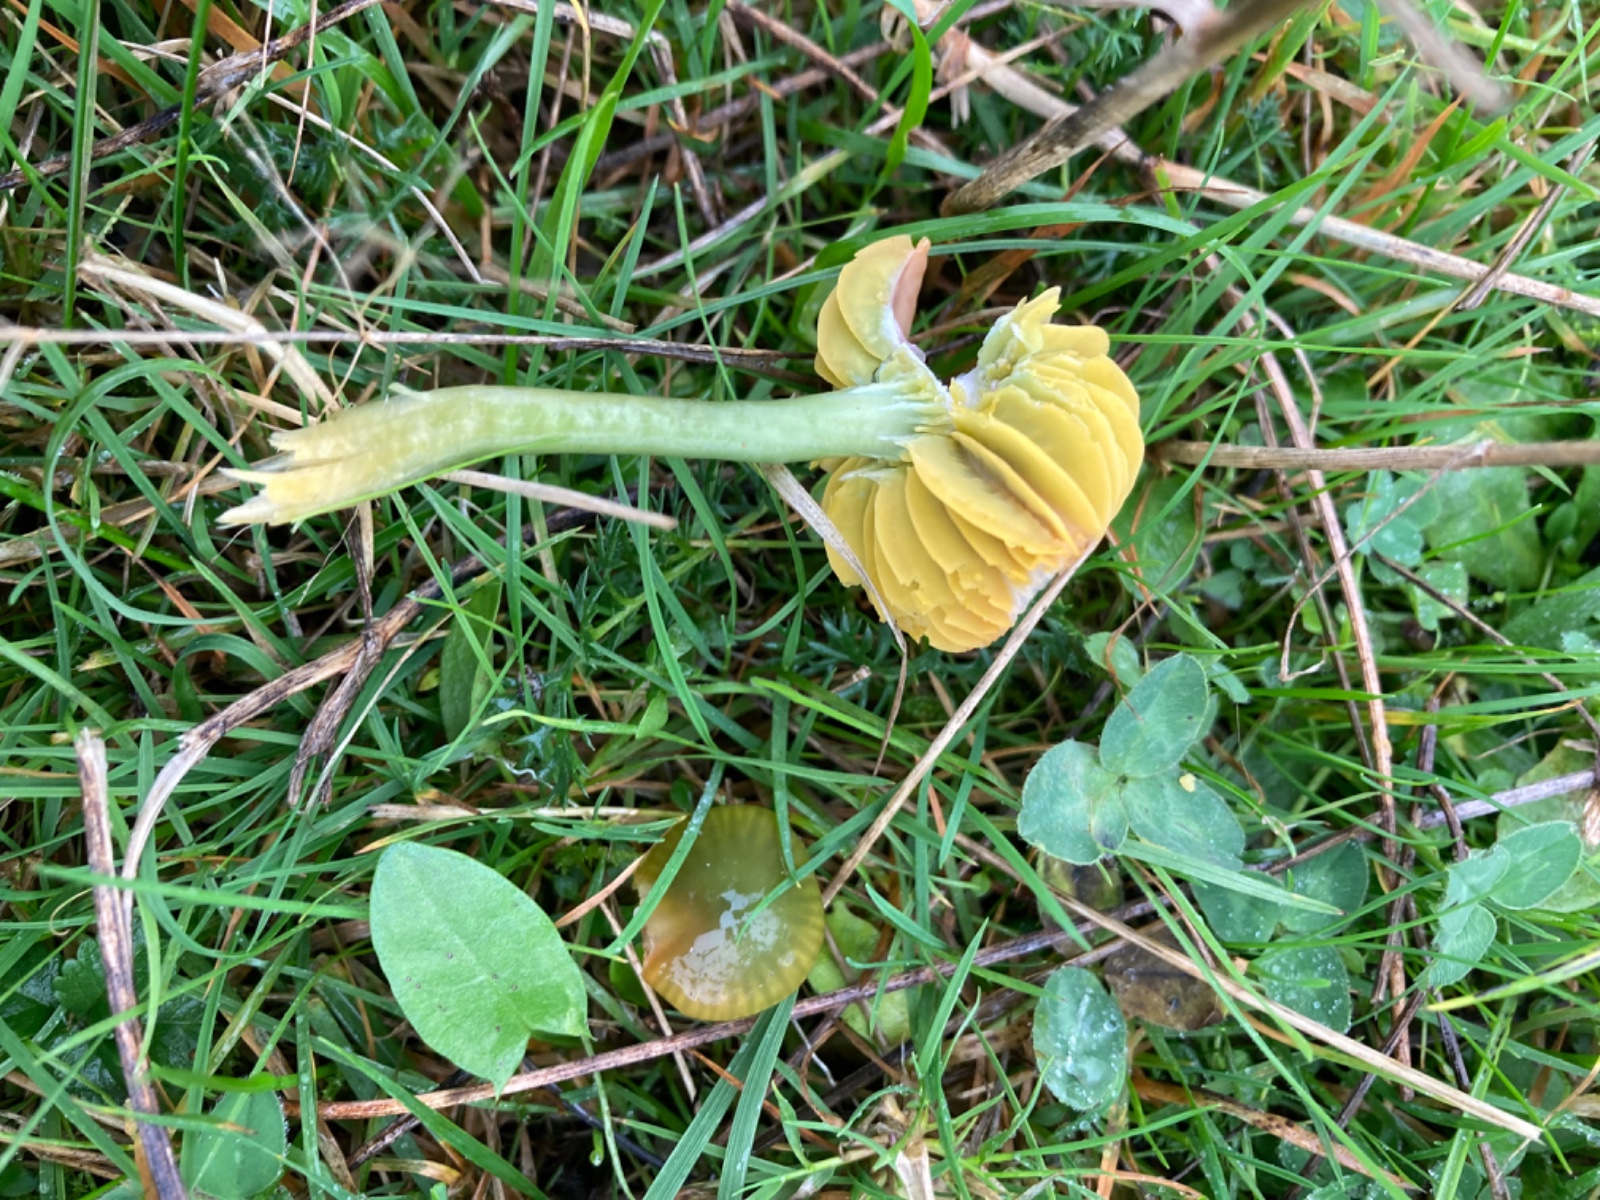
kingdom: Fungi
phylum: Basidiomycota
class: Agaricomycetes
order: Agaricales
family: Hygrophoraceae
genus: Gliophorus
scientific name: Gliophorus psittacinus
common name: papegøje-vokshat
